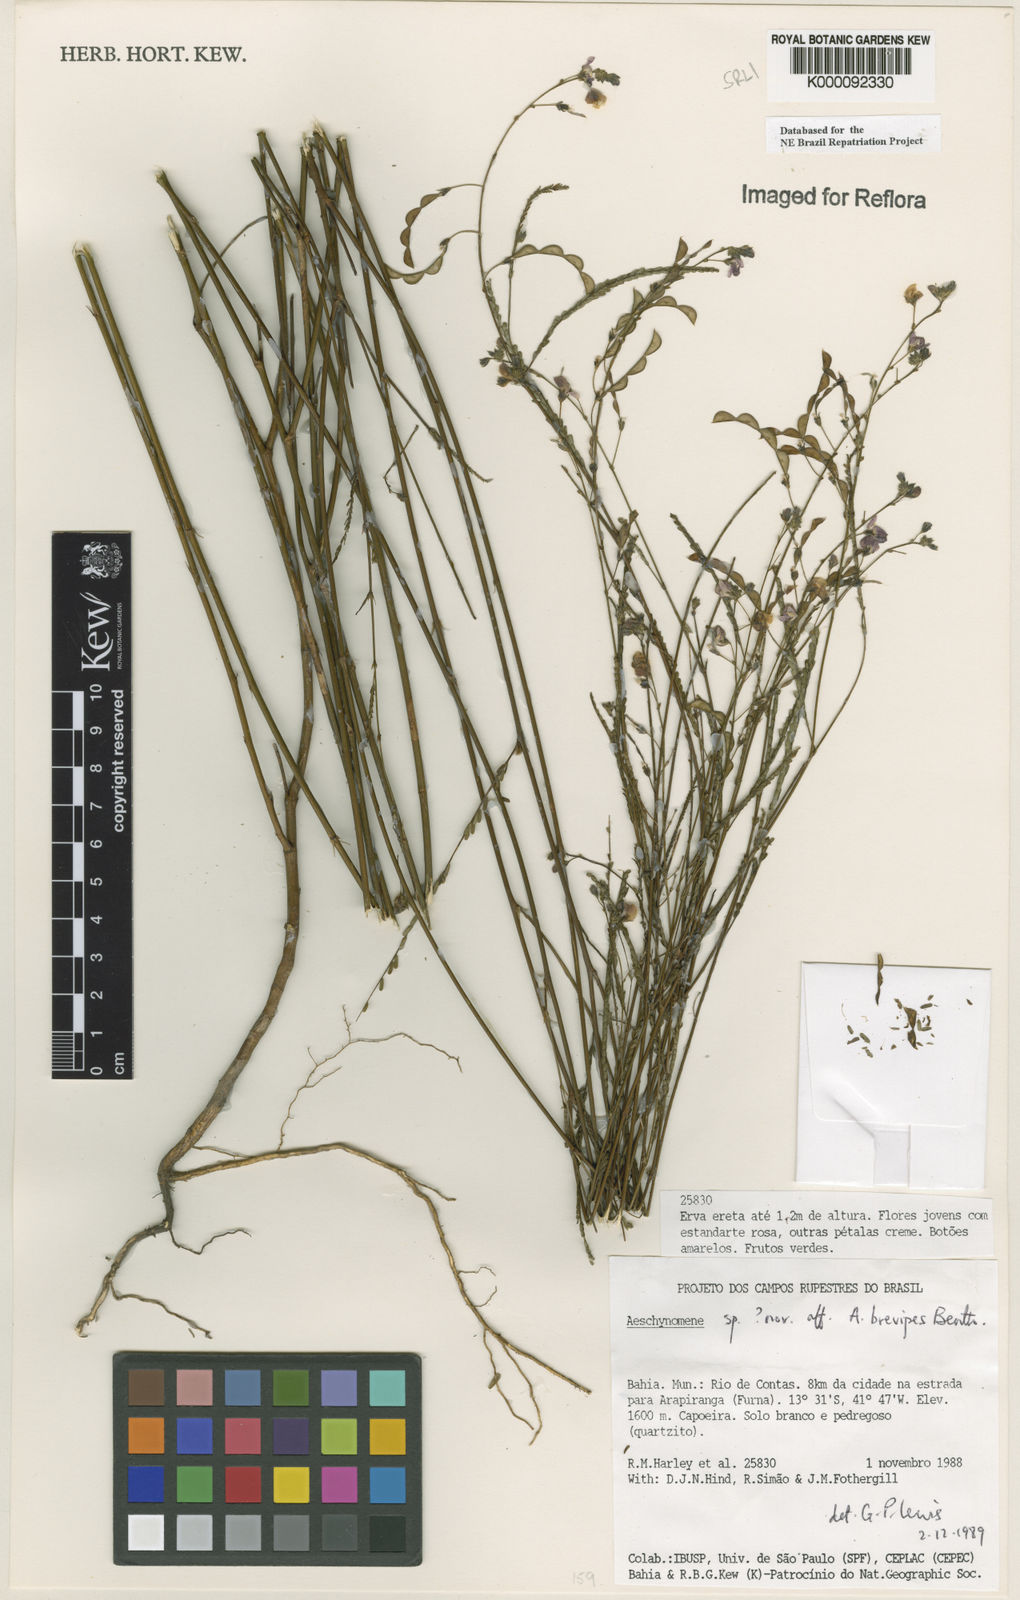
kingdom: Plantae
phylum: Tracheophyta
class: Magnoliopsida
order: Fabales
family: Fabaceae
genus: Ctenodon
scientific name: Ctenodon brevipes
